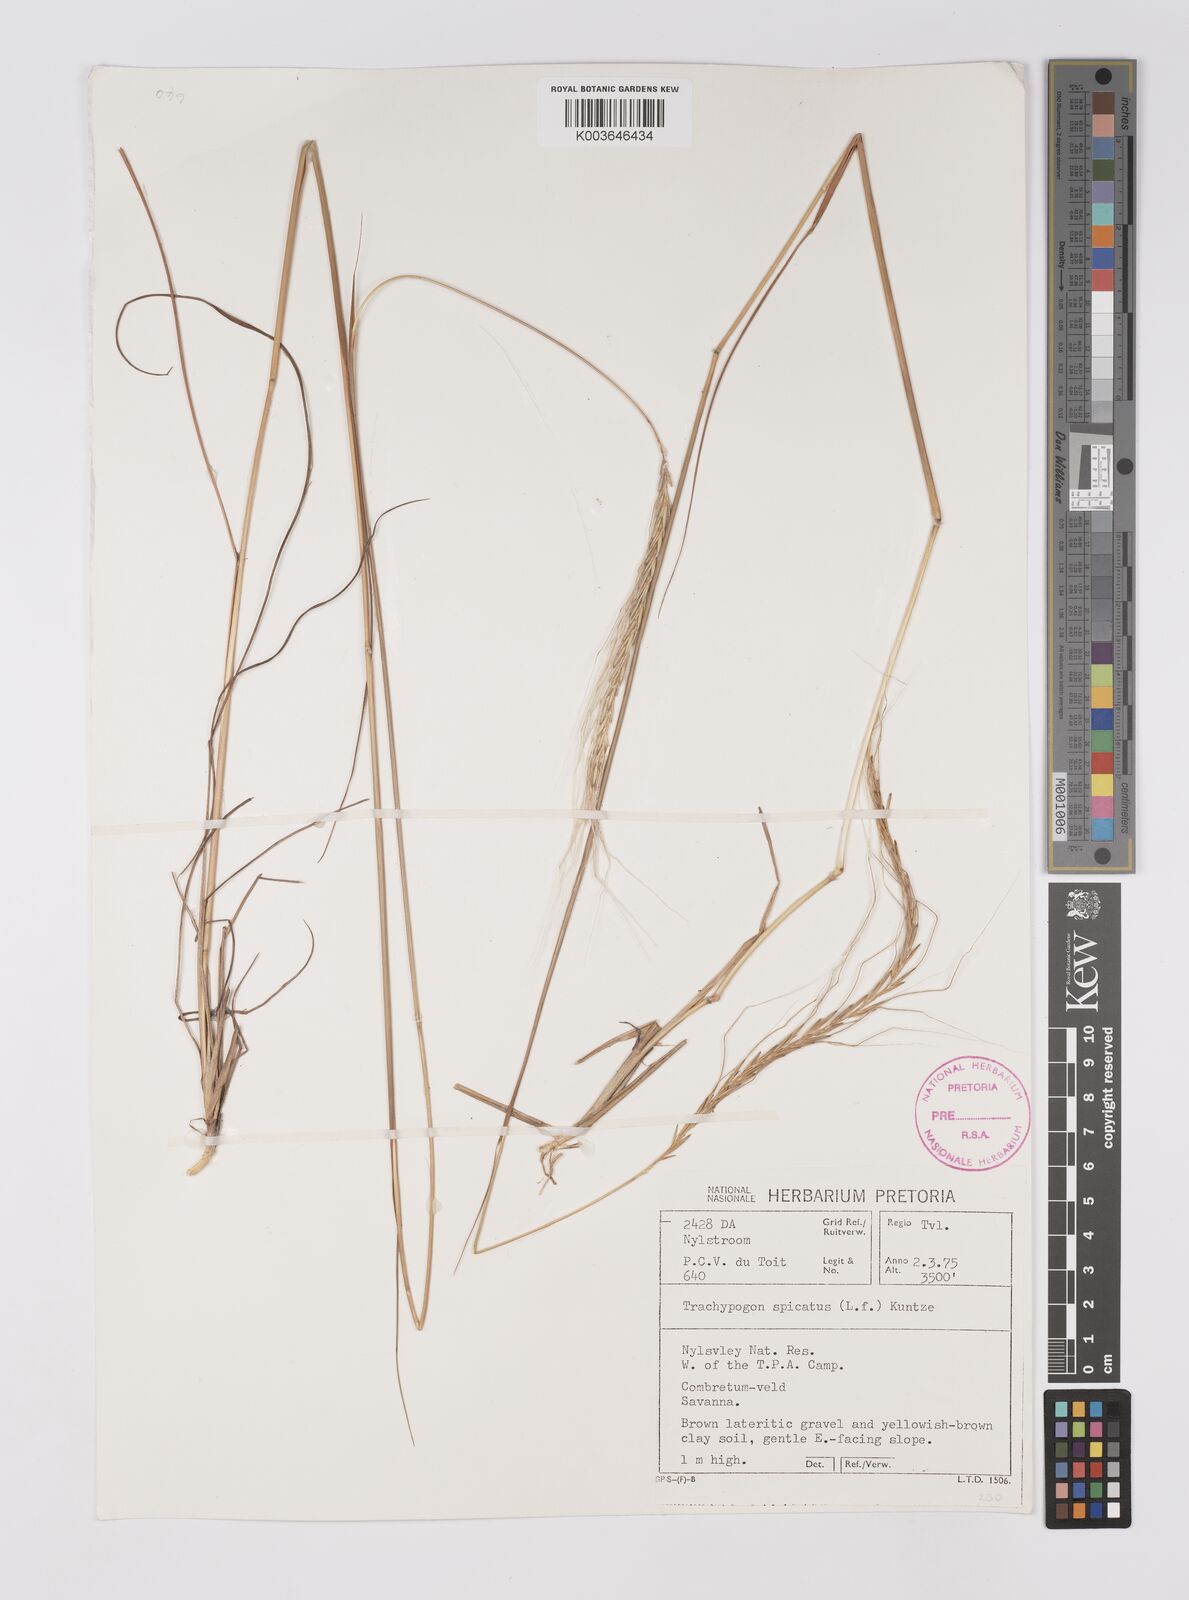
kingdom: Plantae
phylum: Tracheophyta
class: Liliopsida
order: Poales
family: Poaceae
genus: Trachypogon
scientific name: Trachypogon spicatus
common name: Crinkle-awn
